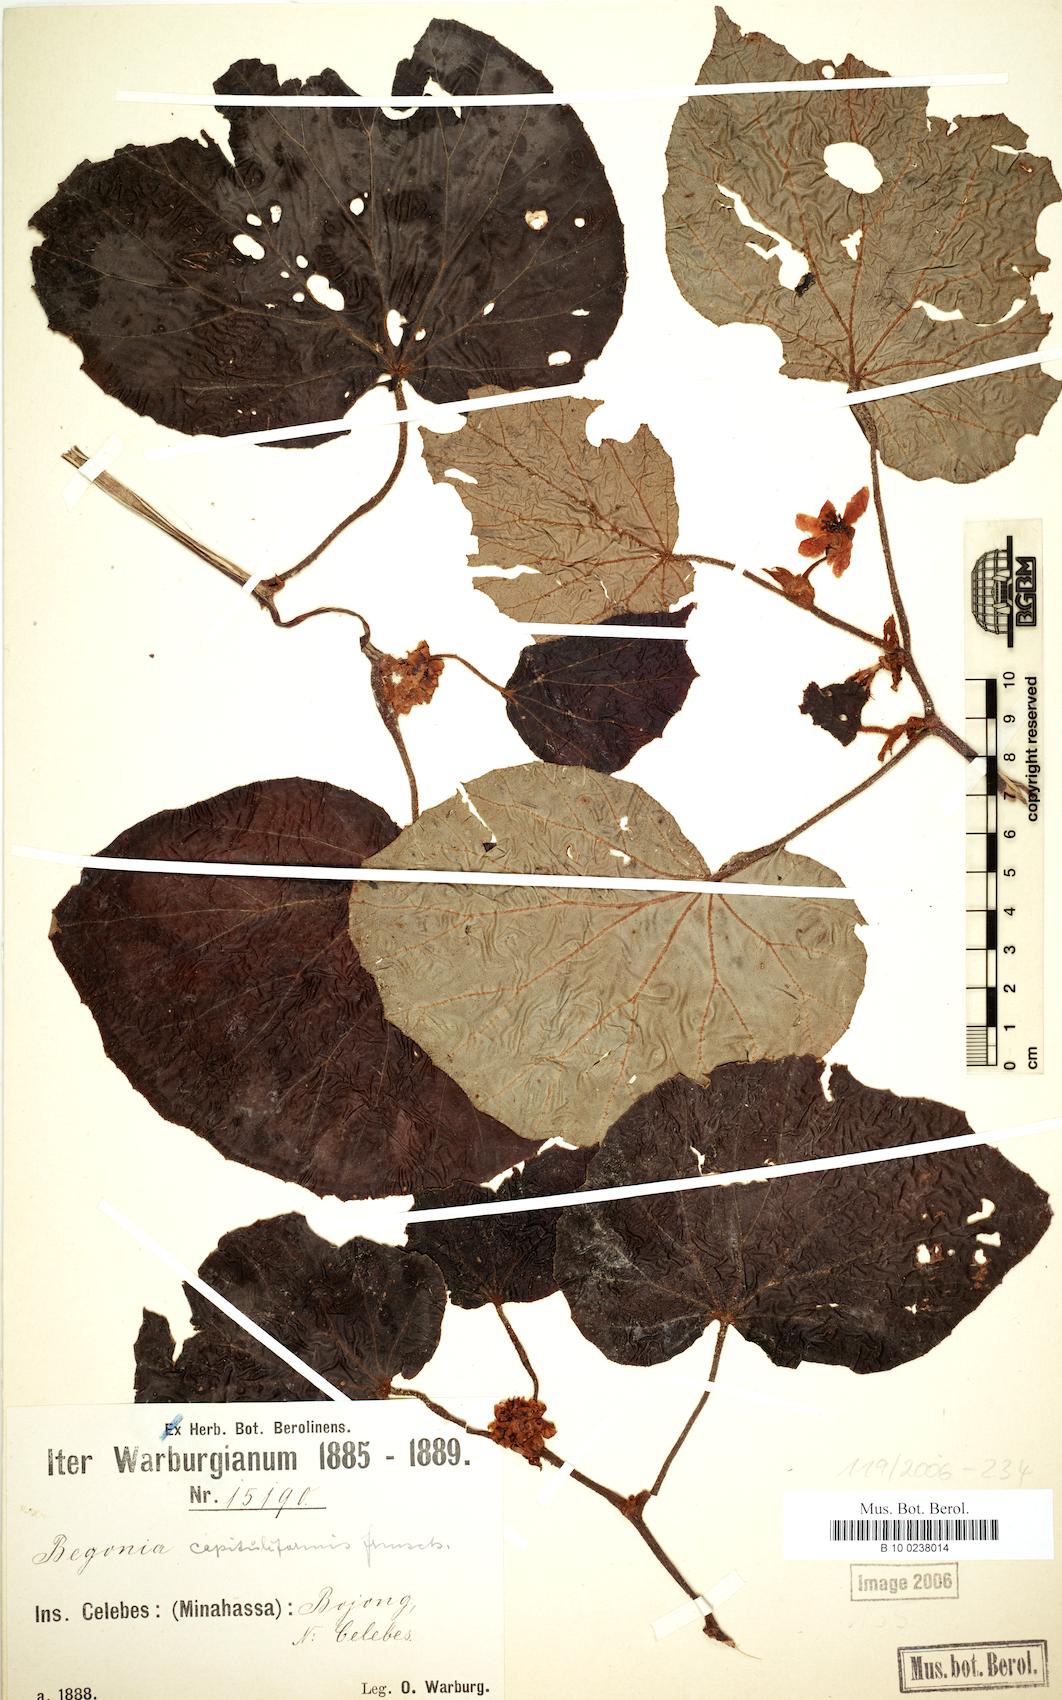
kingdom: Plantae
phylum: Tracheophyta
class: Magnoliopsida
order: Cucurbitales
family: Begoniaceae
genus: Begonia
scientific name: Begonia capituliformis
